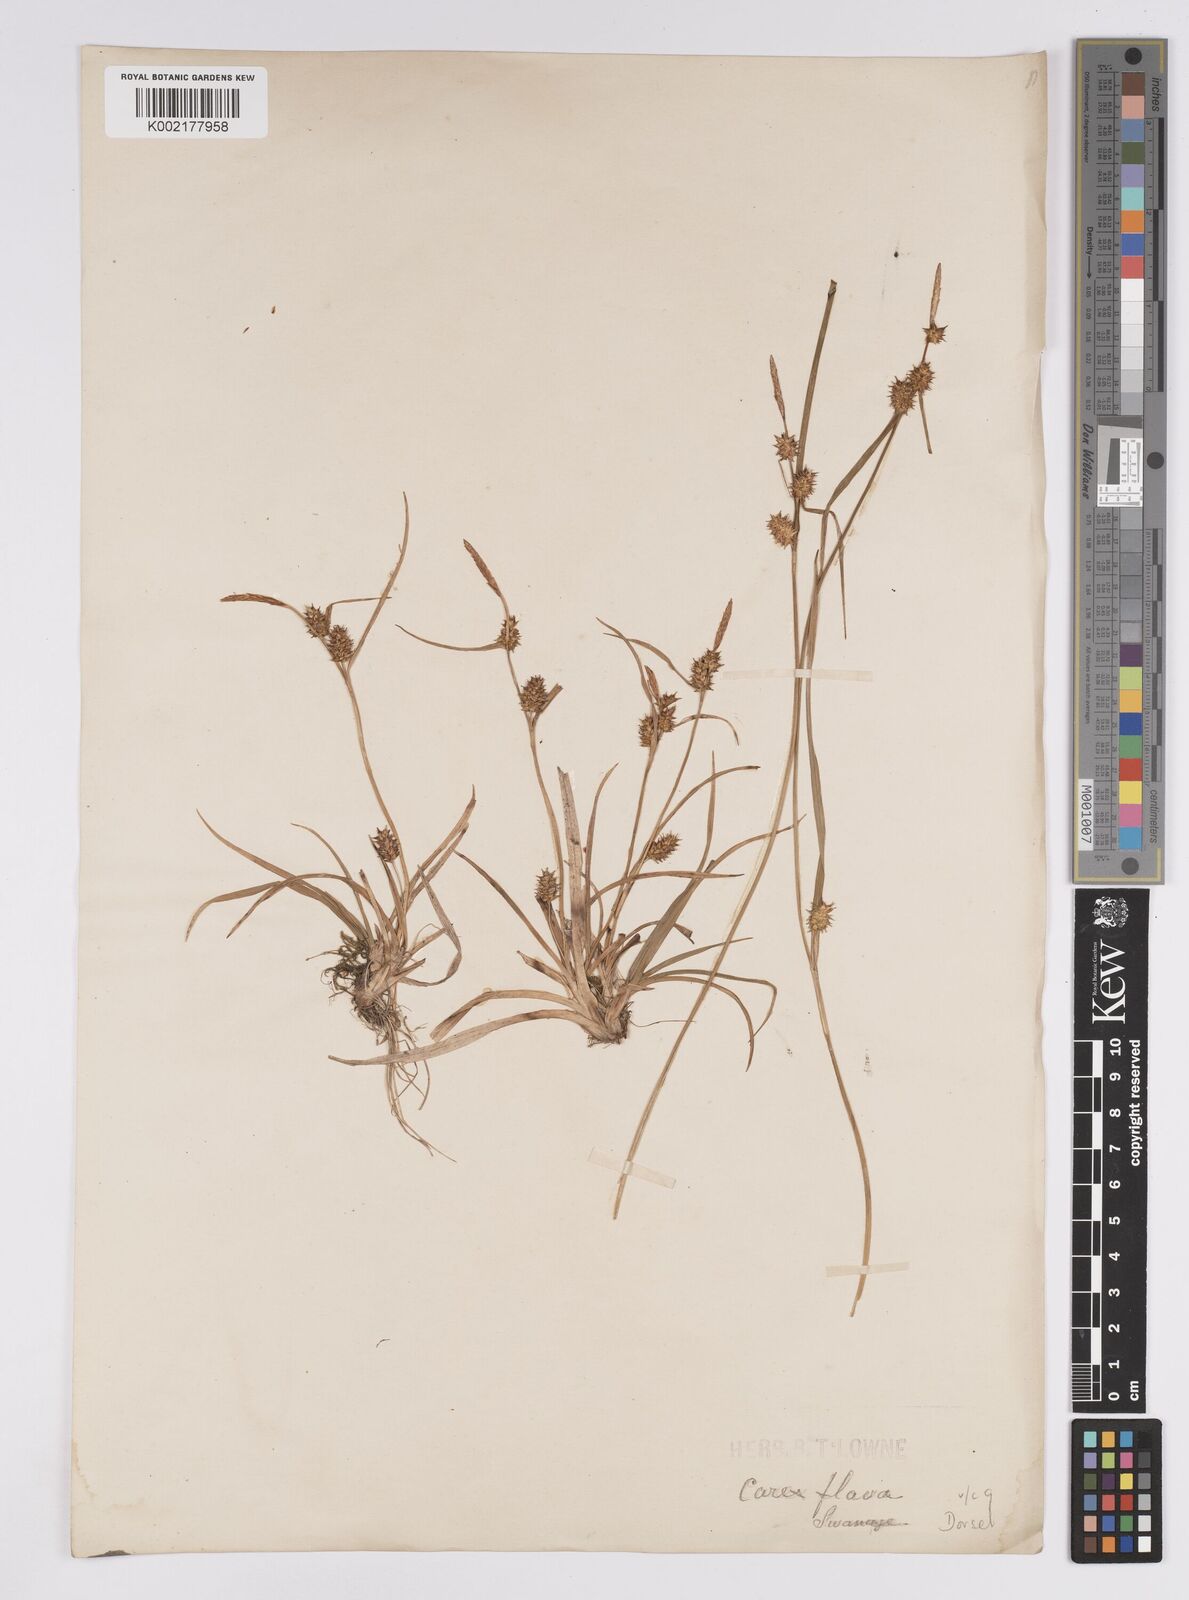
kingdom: Plantae
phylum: Tracheophyta
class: Liliopsida
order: Poales
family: Cyperaceae
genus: Carex
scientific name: Carex demissa
